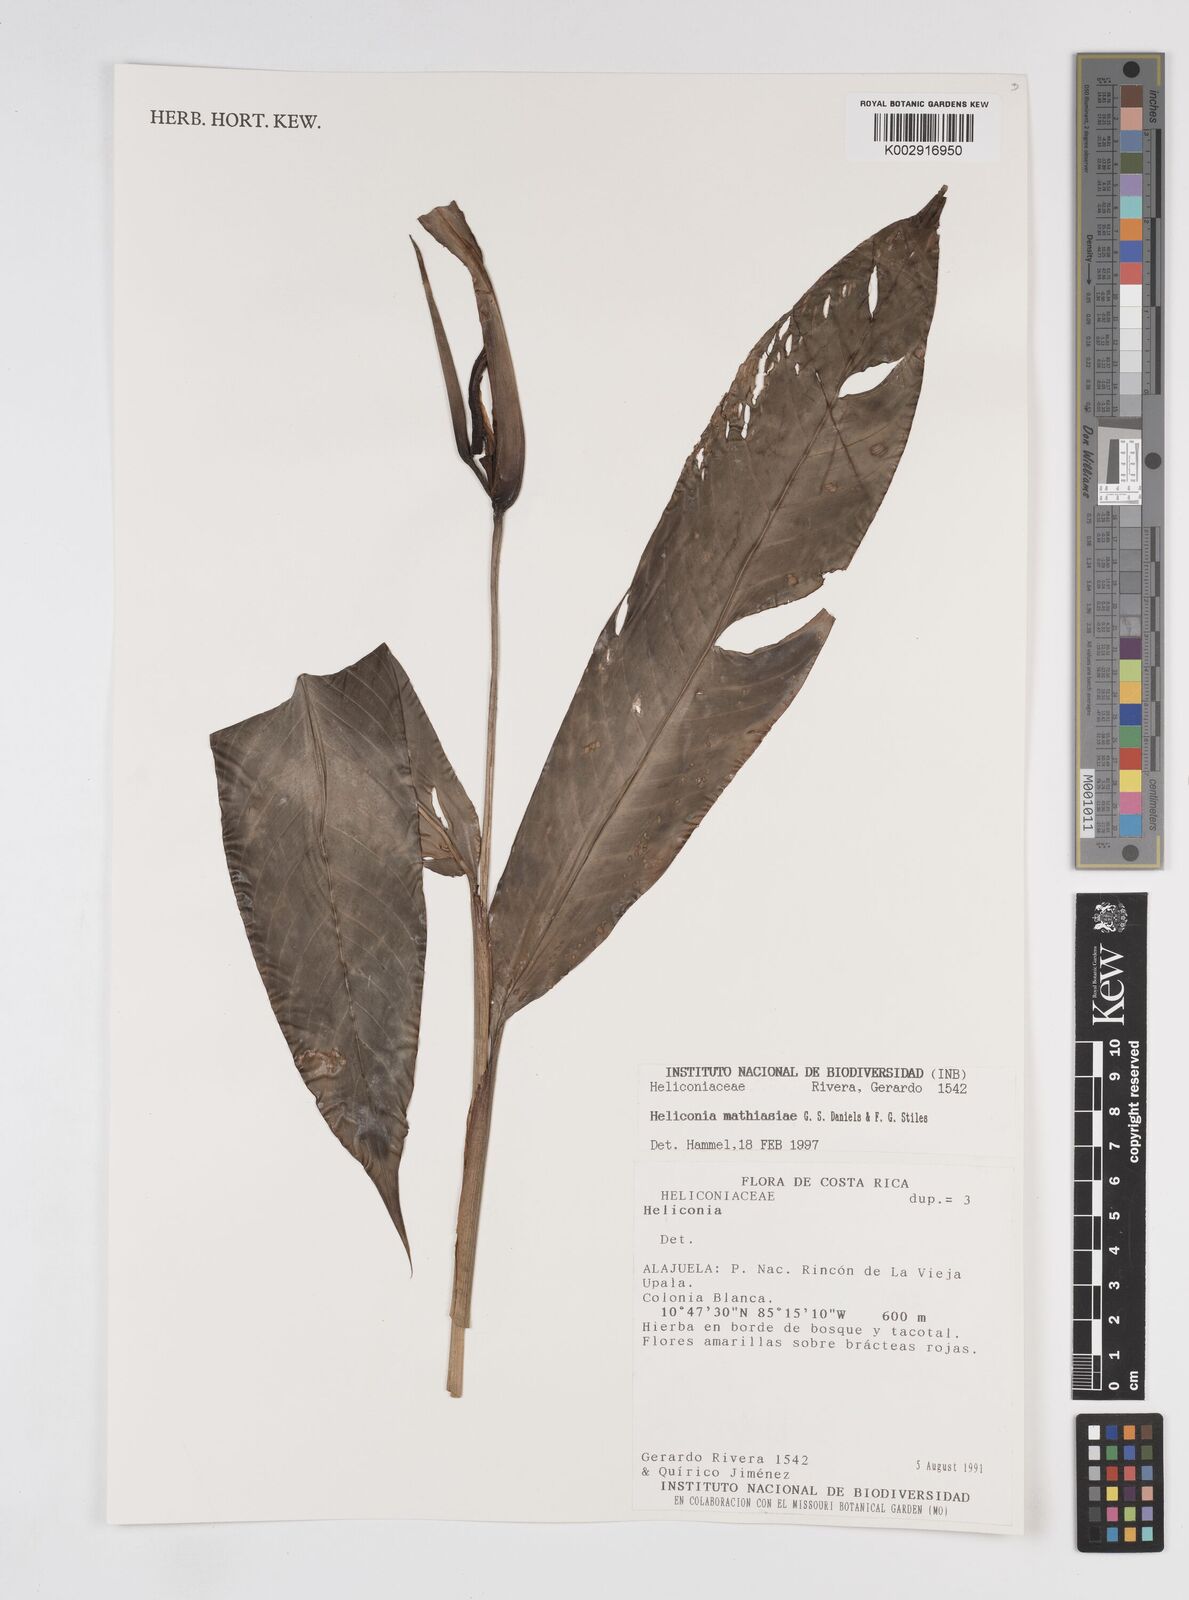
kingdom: Plantae
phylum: Tracheophyta
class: Liliopsida
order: Zingiberales
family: Heliconiaceae
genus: Heliconia
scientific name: Heliconia mathiasiae
